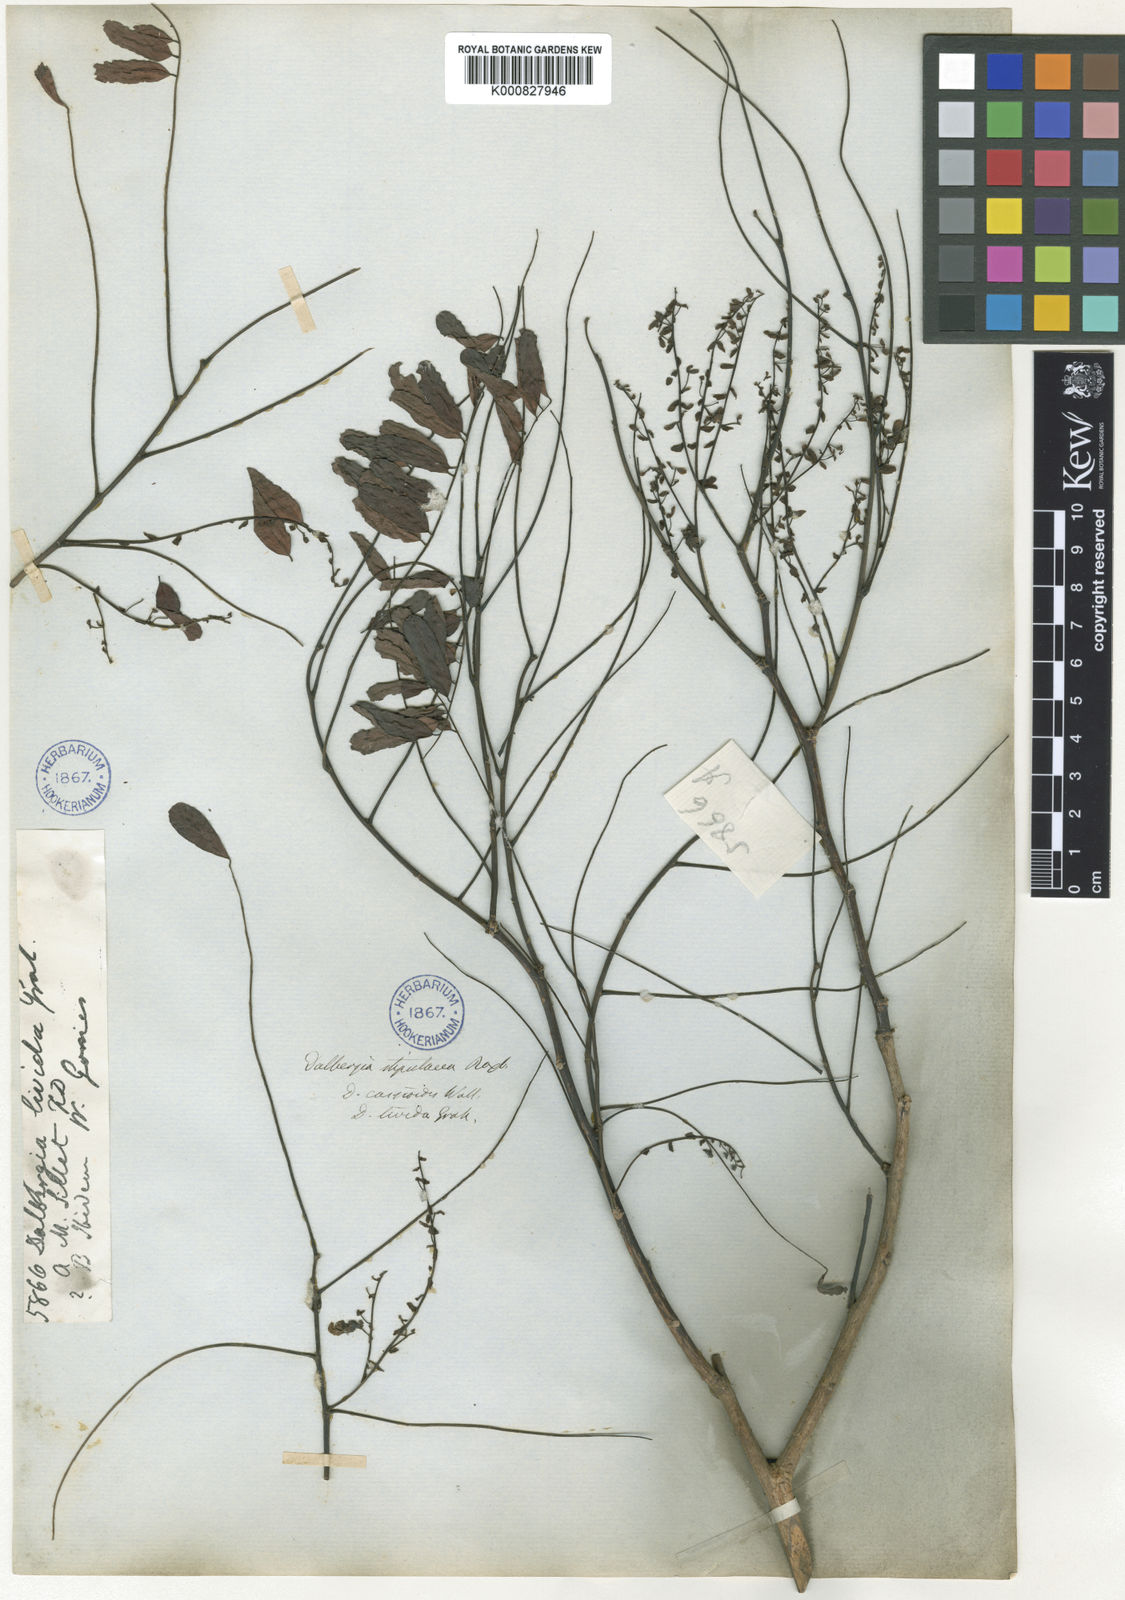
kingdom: Plantae
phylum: Tracheophyta
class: Magnoliopsida
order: Fabales
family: Fabaceae
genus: Dalbergia
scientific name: Dalbergia stipulacea
